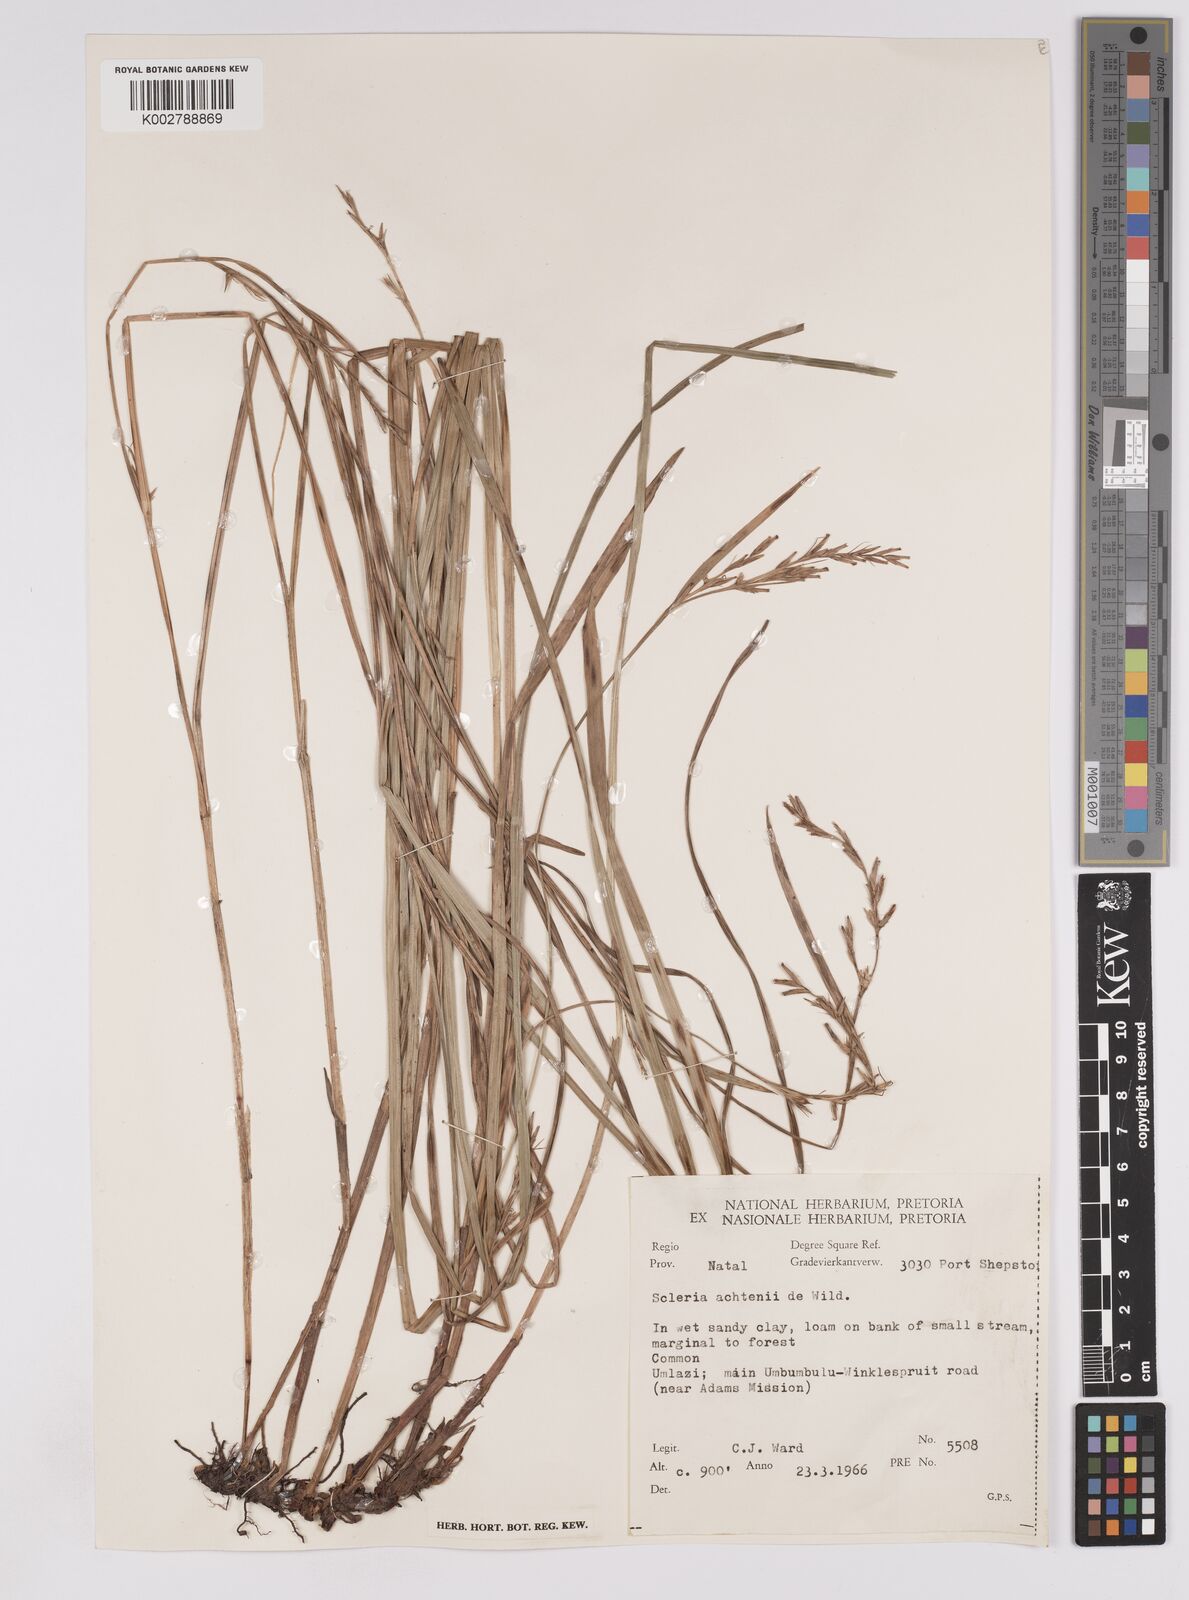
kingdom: Plantae
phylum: Tracheophyta
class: Liliopsida
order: Poales
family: Cyperaceae
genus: Scleria
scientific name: Scleria achtenii
